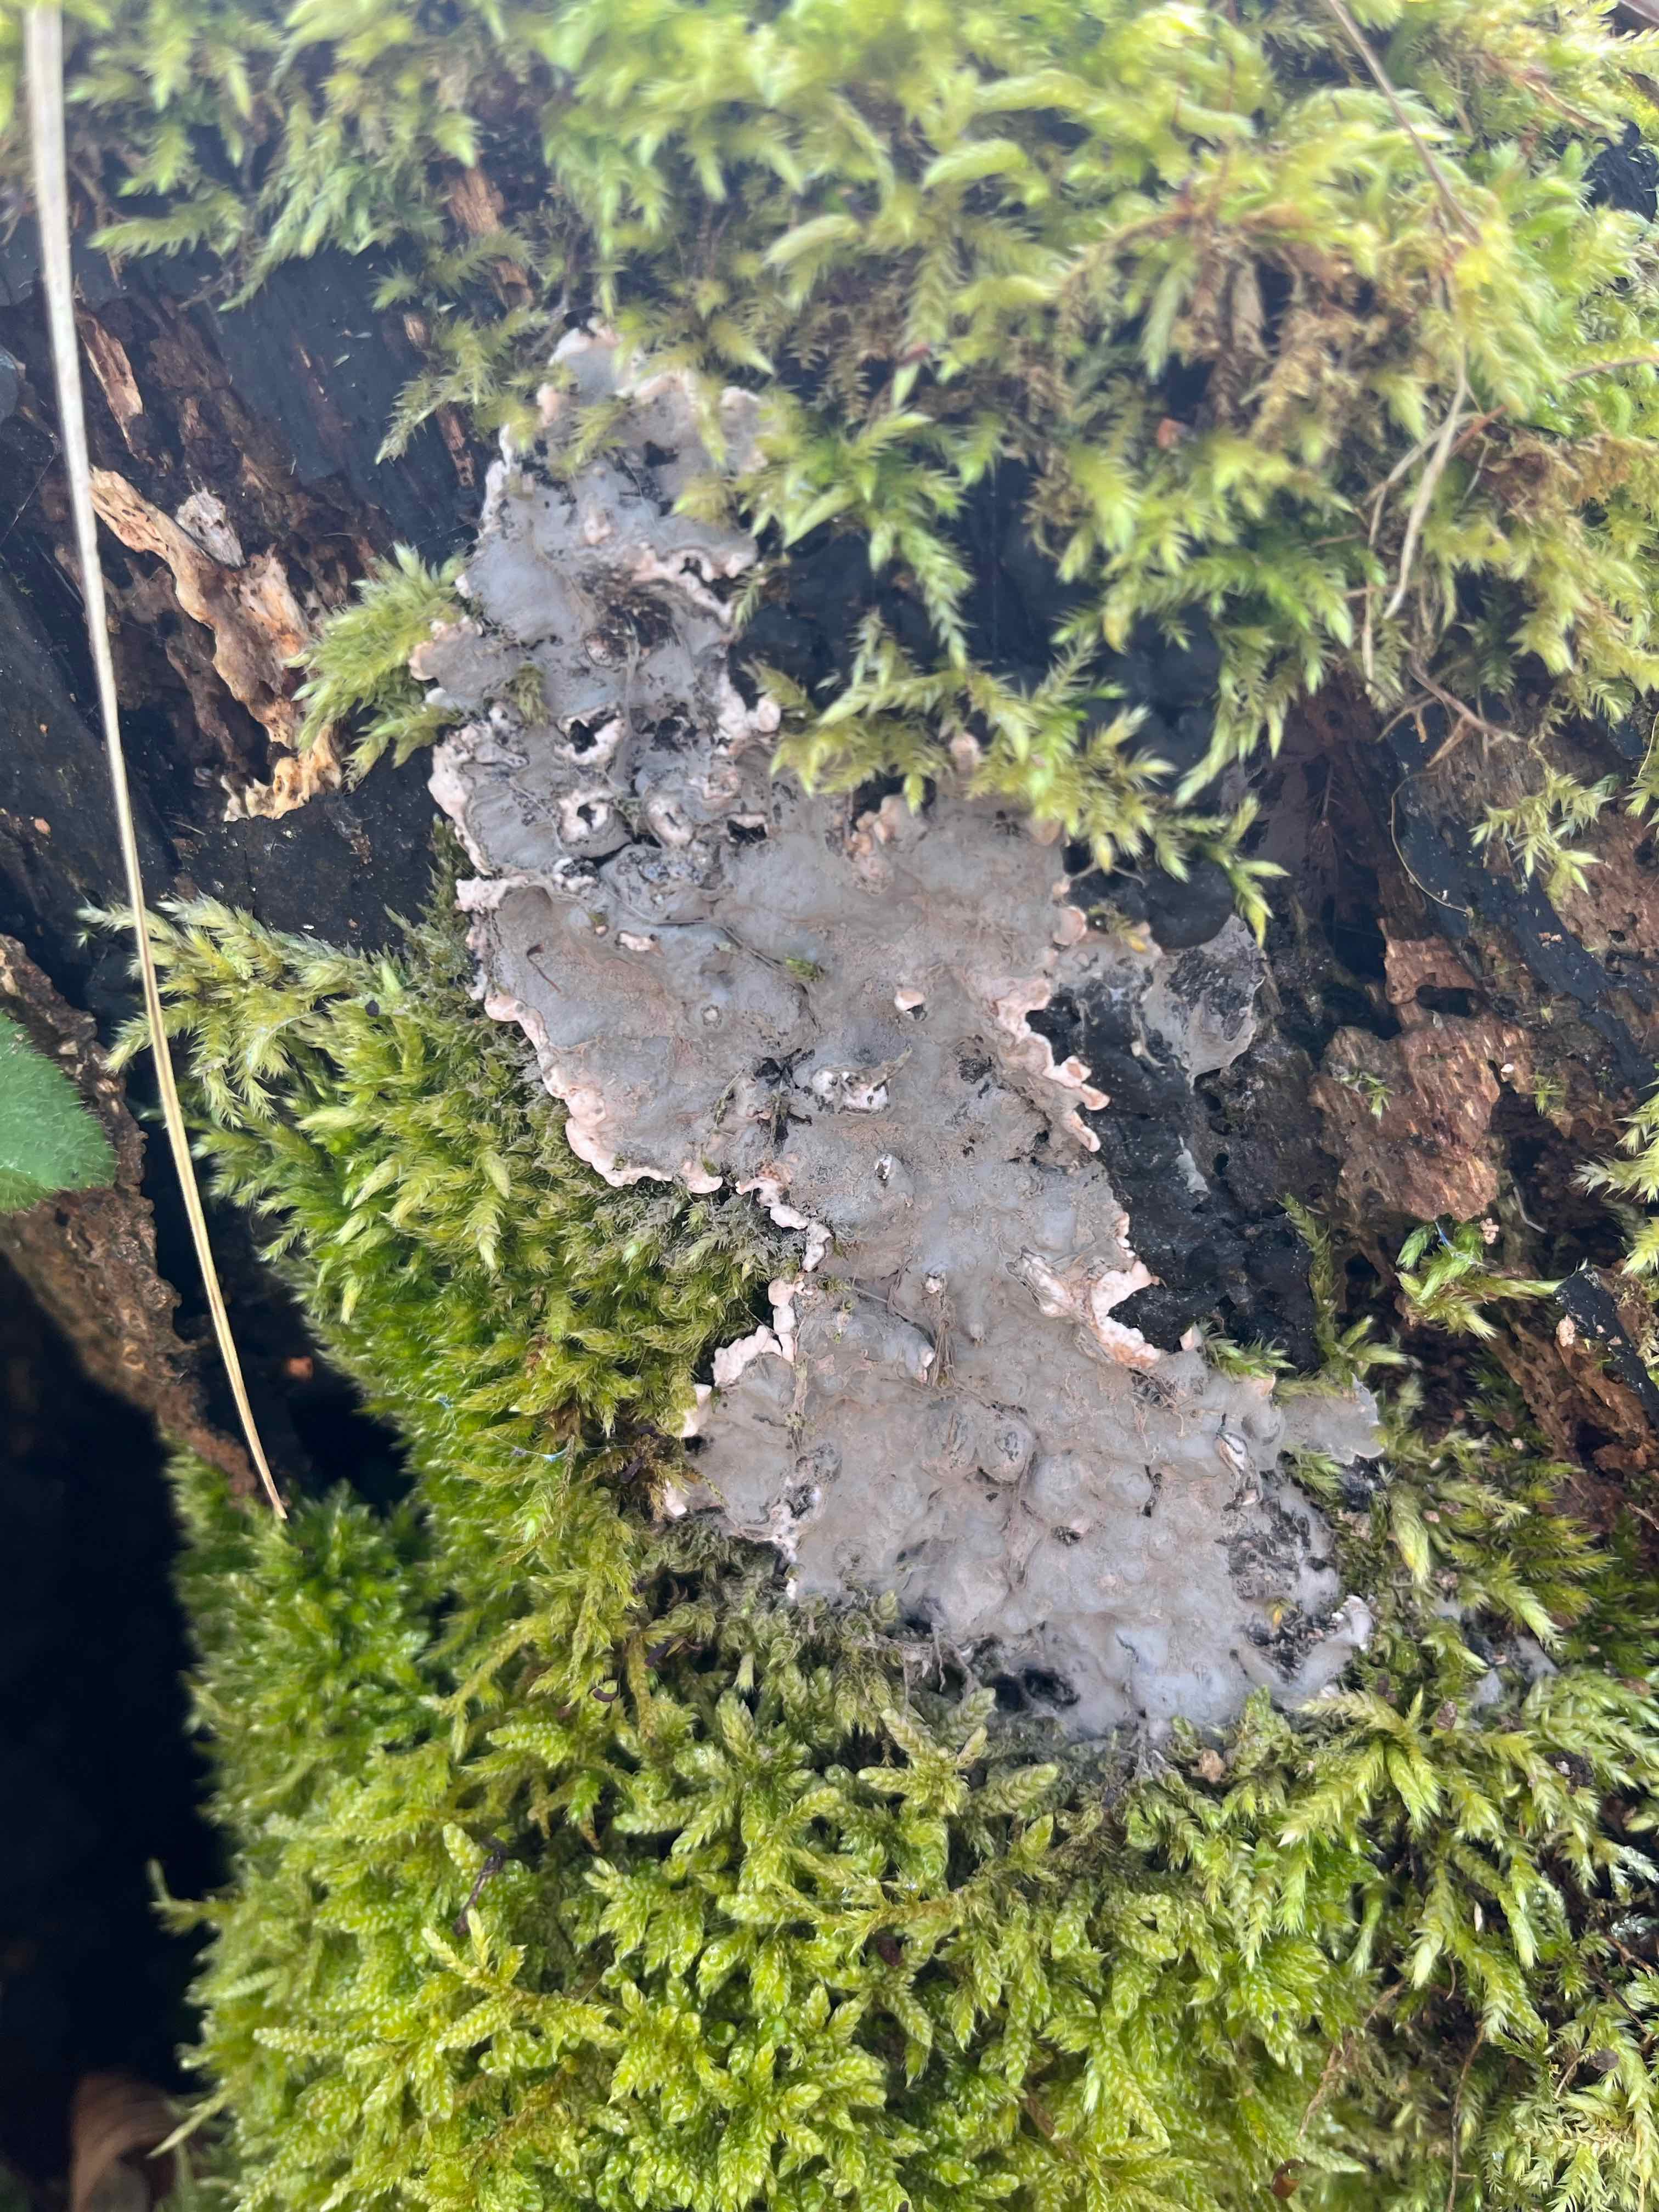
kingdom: Fungi
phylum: Ascomycota
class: Sordariomycetes
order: Xylariales
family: Xylariaceae
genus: Kretzschmaria
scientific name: Kretzschmaria deusta
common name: stor kulsvamp
